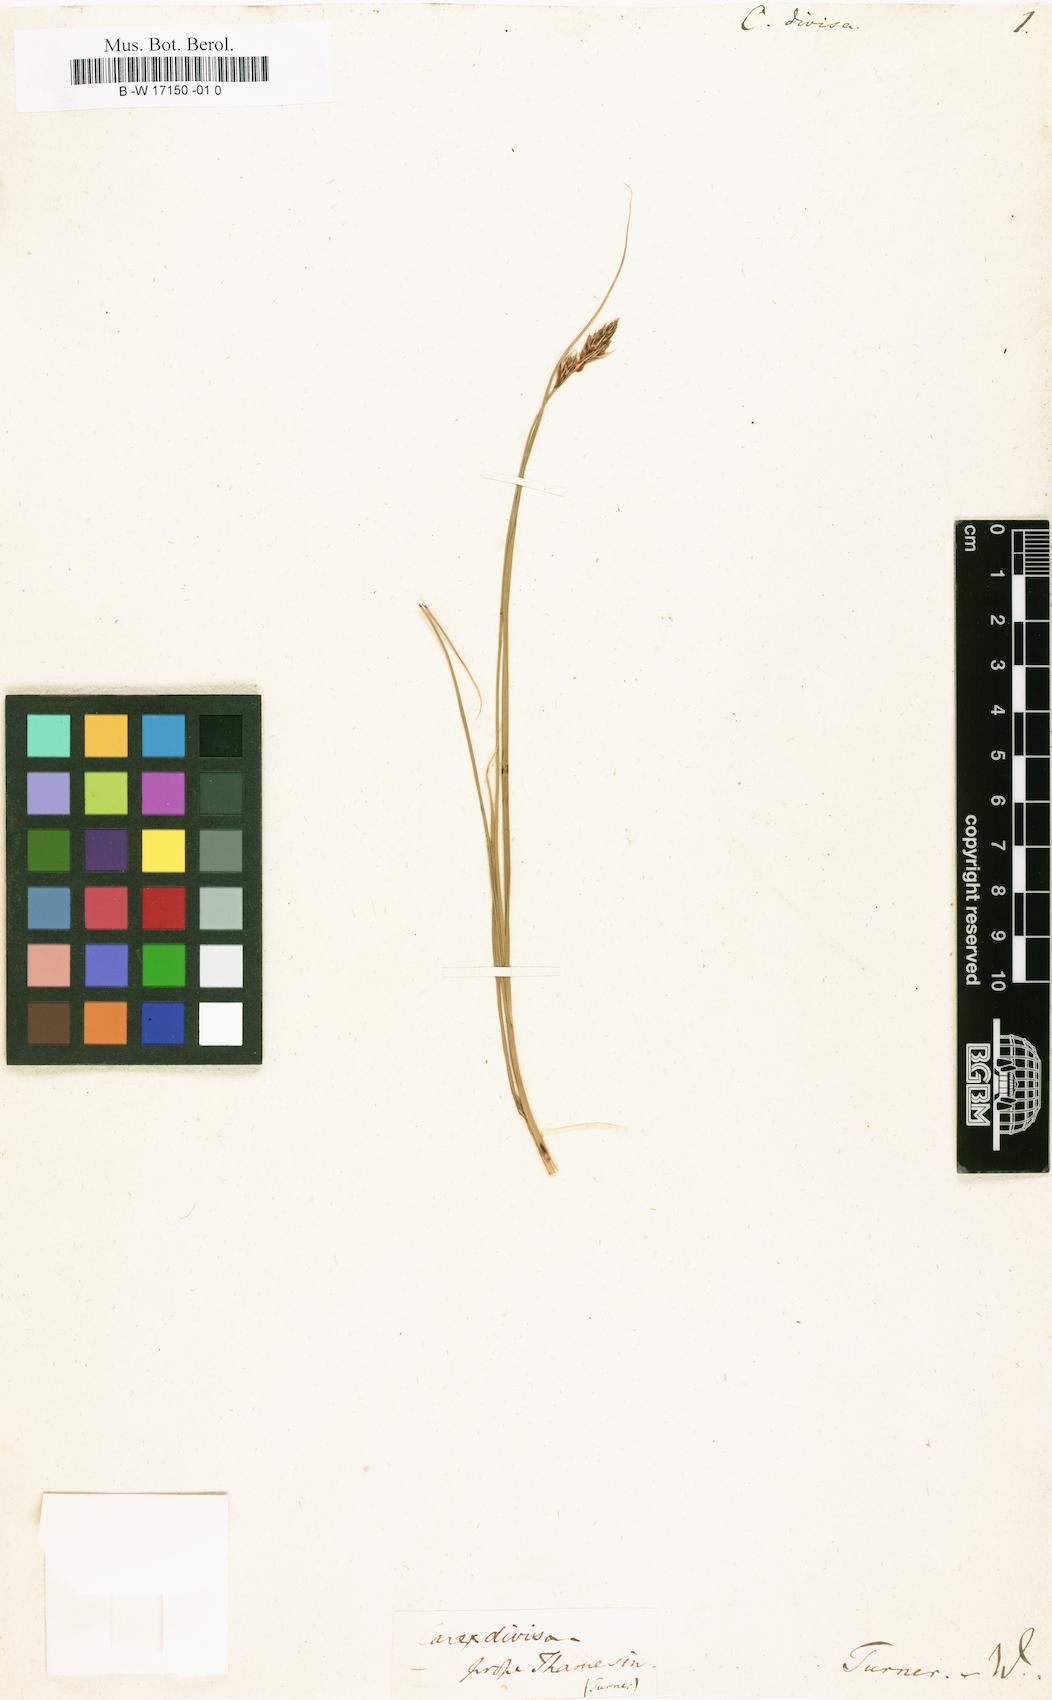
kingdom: Plantae
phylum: Tracheophyta
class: Liliopsida
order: Poales
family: Cyperaceae
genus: Carex
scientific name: Carex divisa
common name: Divided sedge
